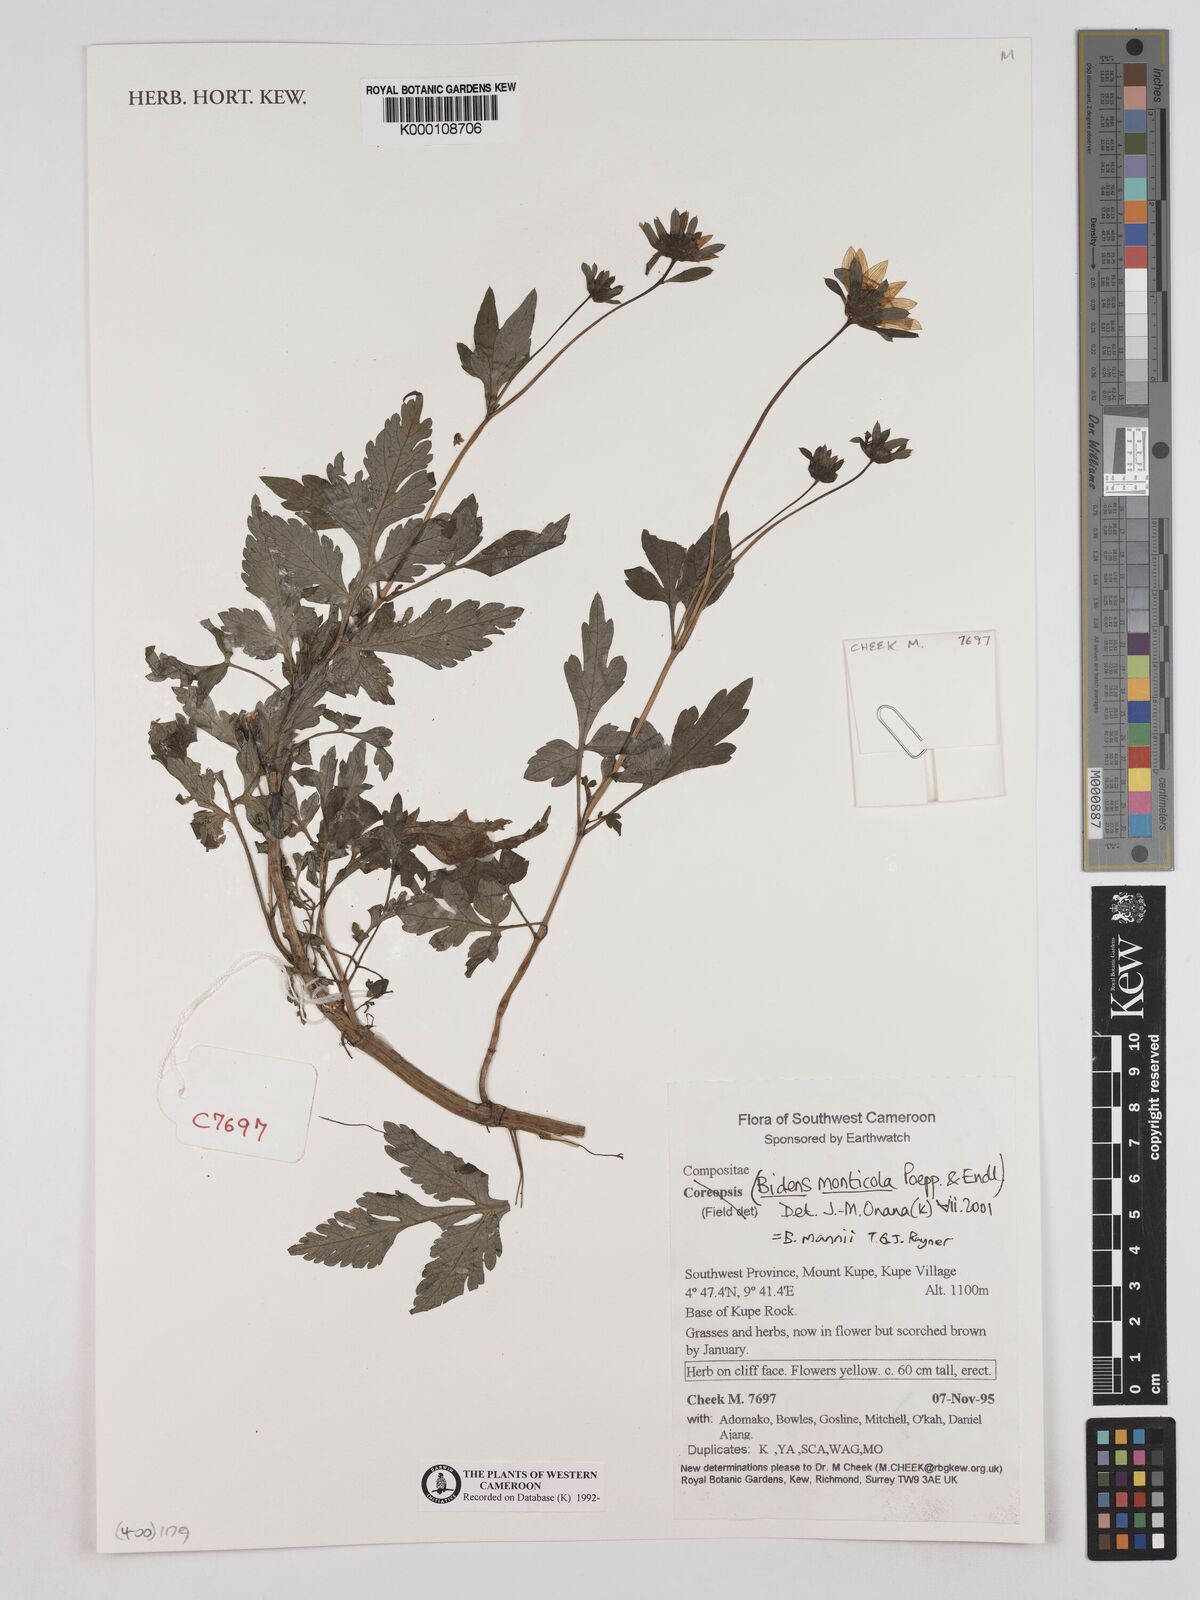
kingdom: Plantae
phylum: Tracheophyta
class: Magnoliopsida
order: Asterales
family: Asteraceae
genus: Bidens
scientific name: Bidens mannii
